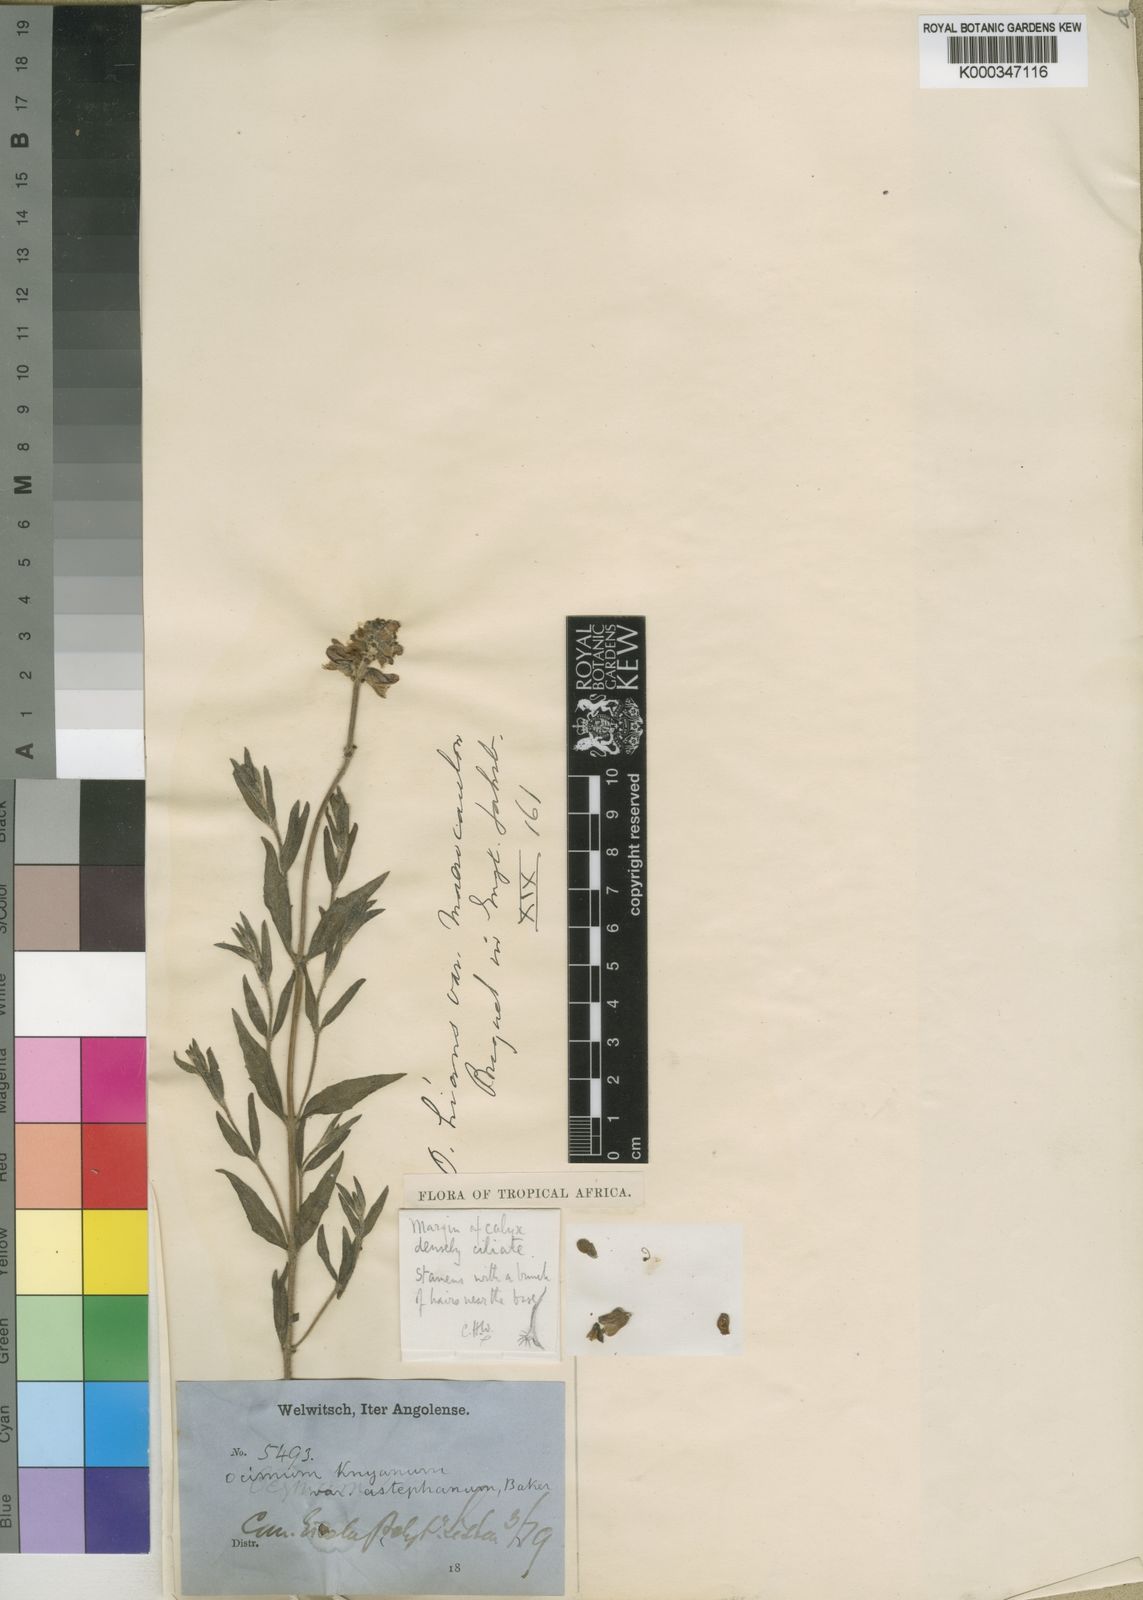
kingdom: Plantae
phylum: Tracheophyta
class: Magnoliopsida
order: Lamiales
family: Lamiaceae
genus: Ocimum
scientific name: Ocimum obovatum
